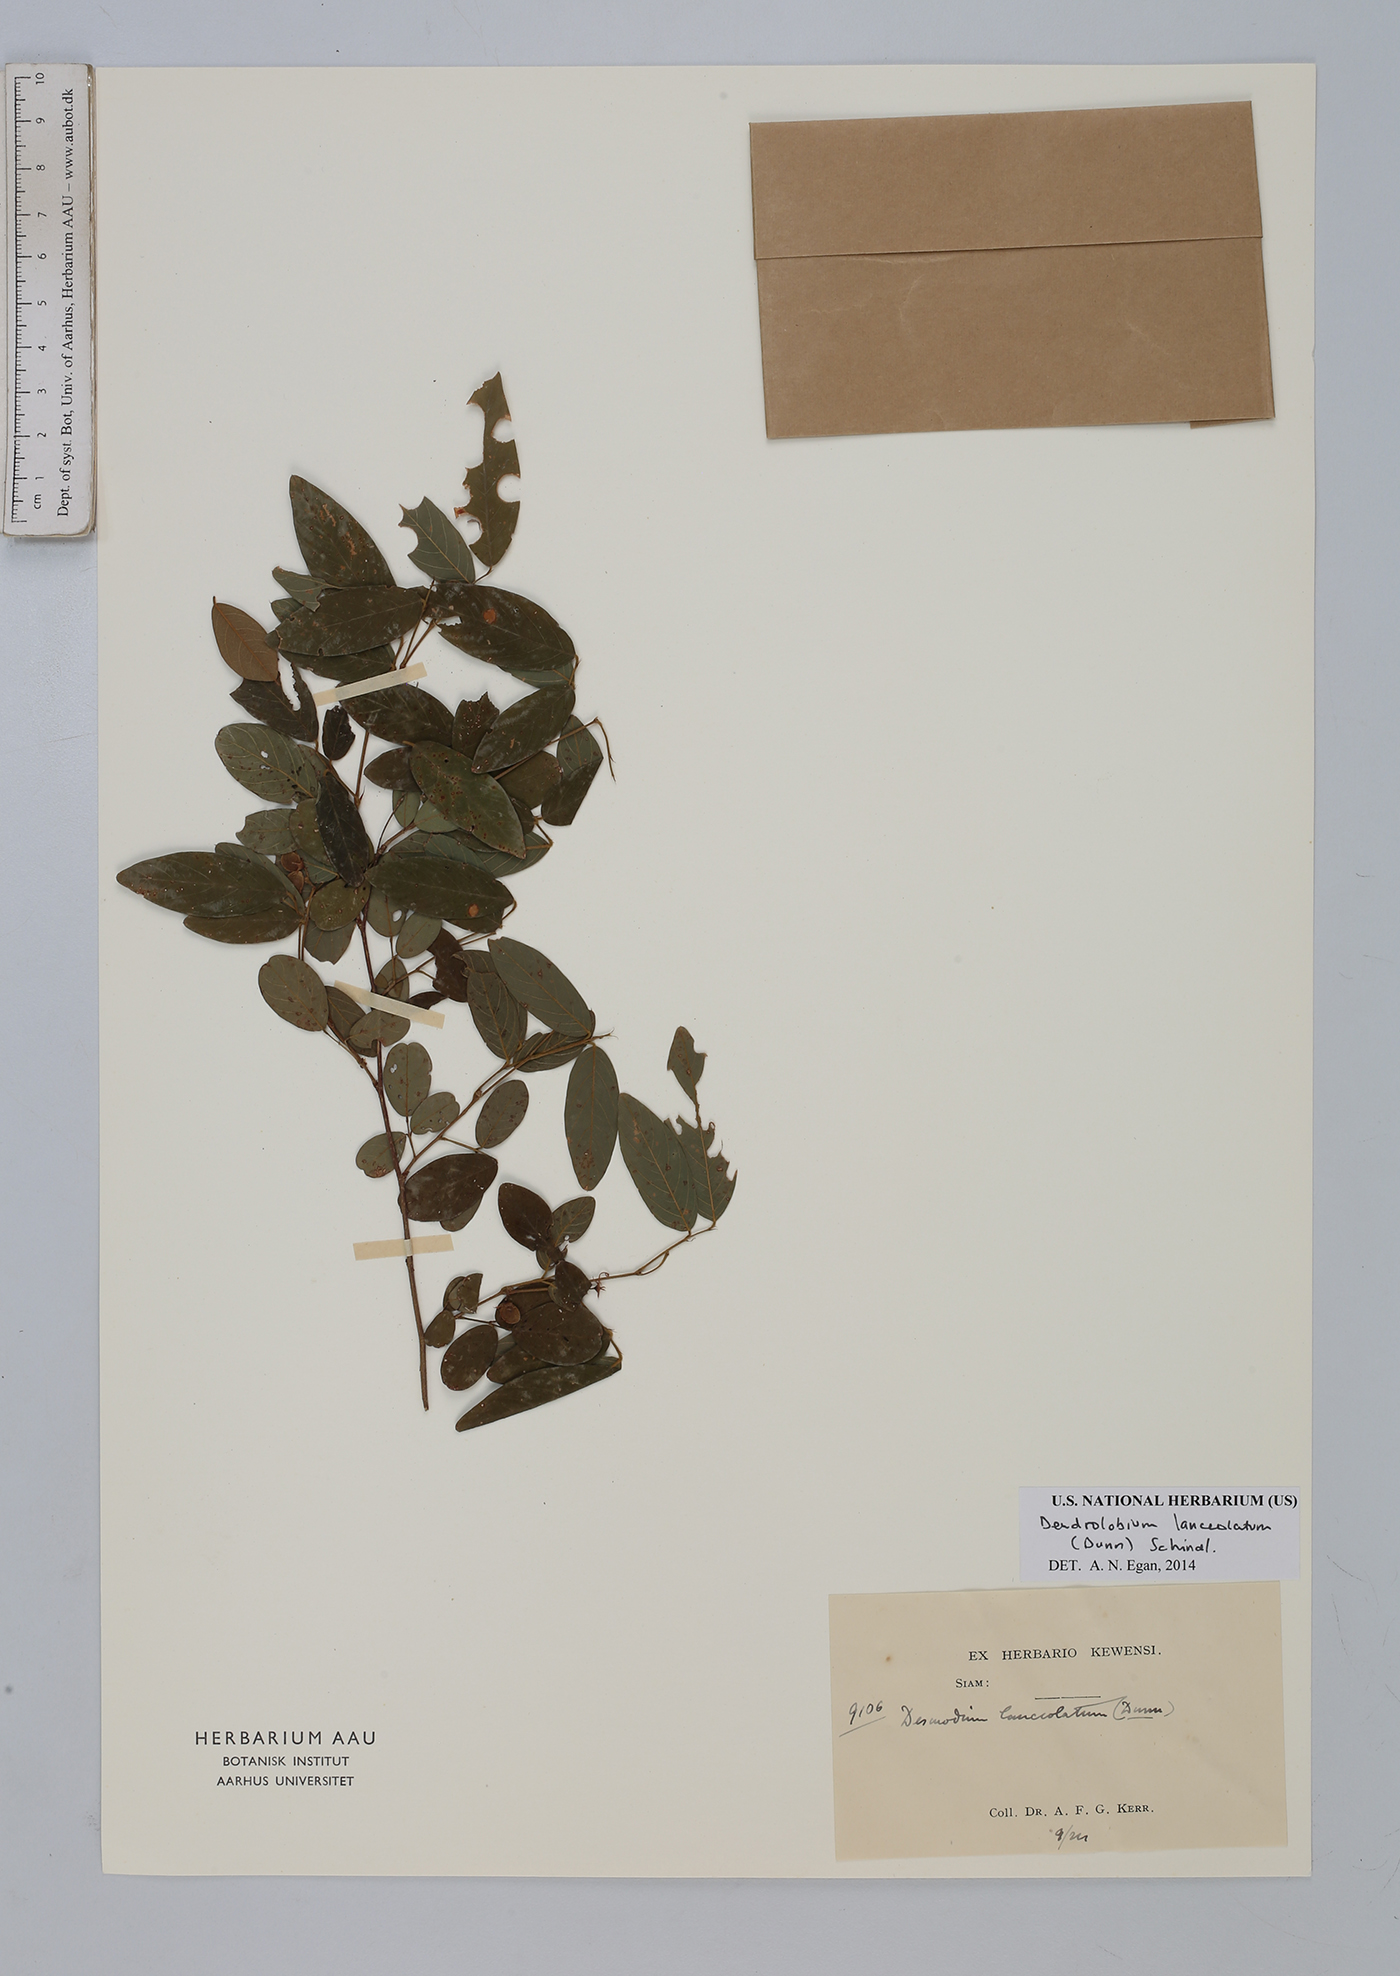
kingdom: Plantae
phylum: Tracheophyta
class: Magnoliopsida
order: Fabales
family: Fabaceae
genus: Dendrolobium
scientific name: Dendrolobium lanceolatum
